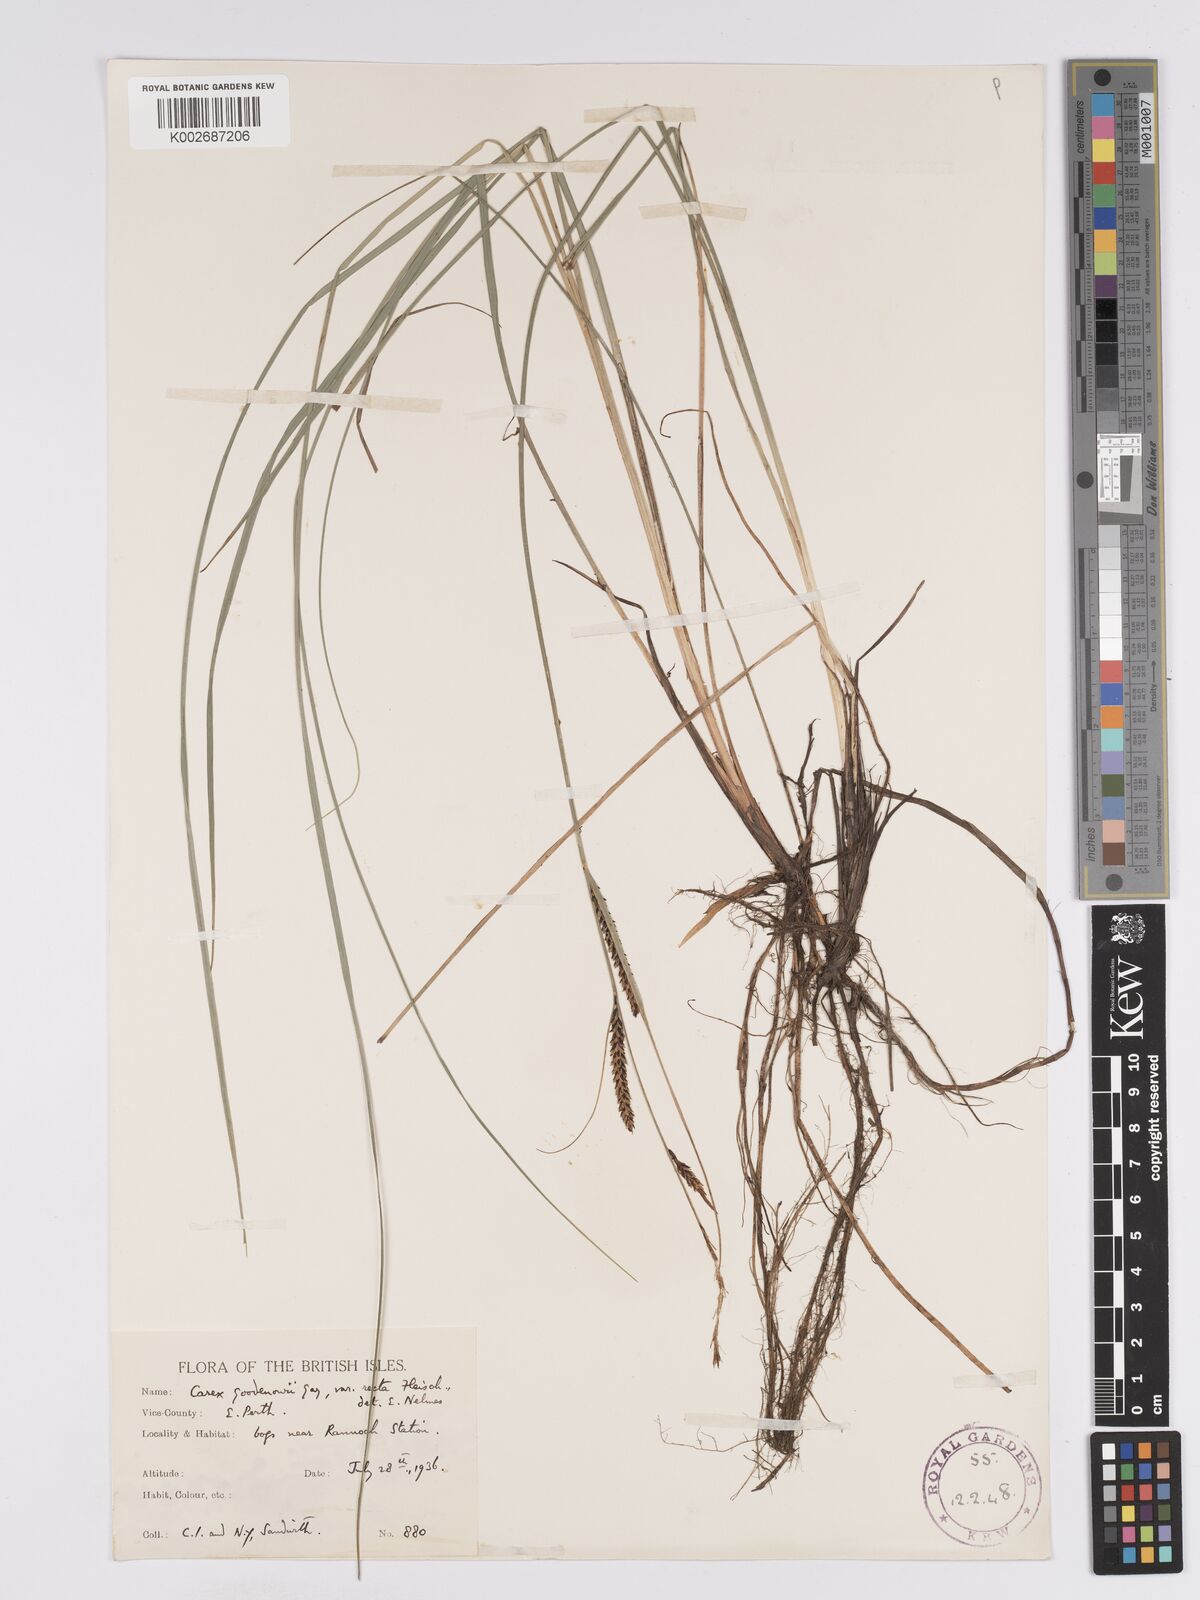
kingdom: Plantae
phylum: Tracheophyta
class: Liliopsida
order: Poales
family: Cyperaceae
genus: Carex
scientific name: Carex nigra
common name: Common sedge
